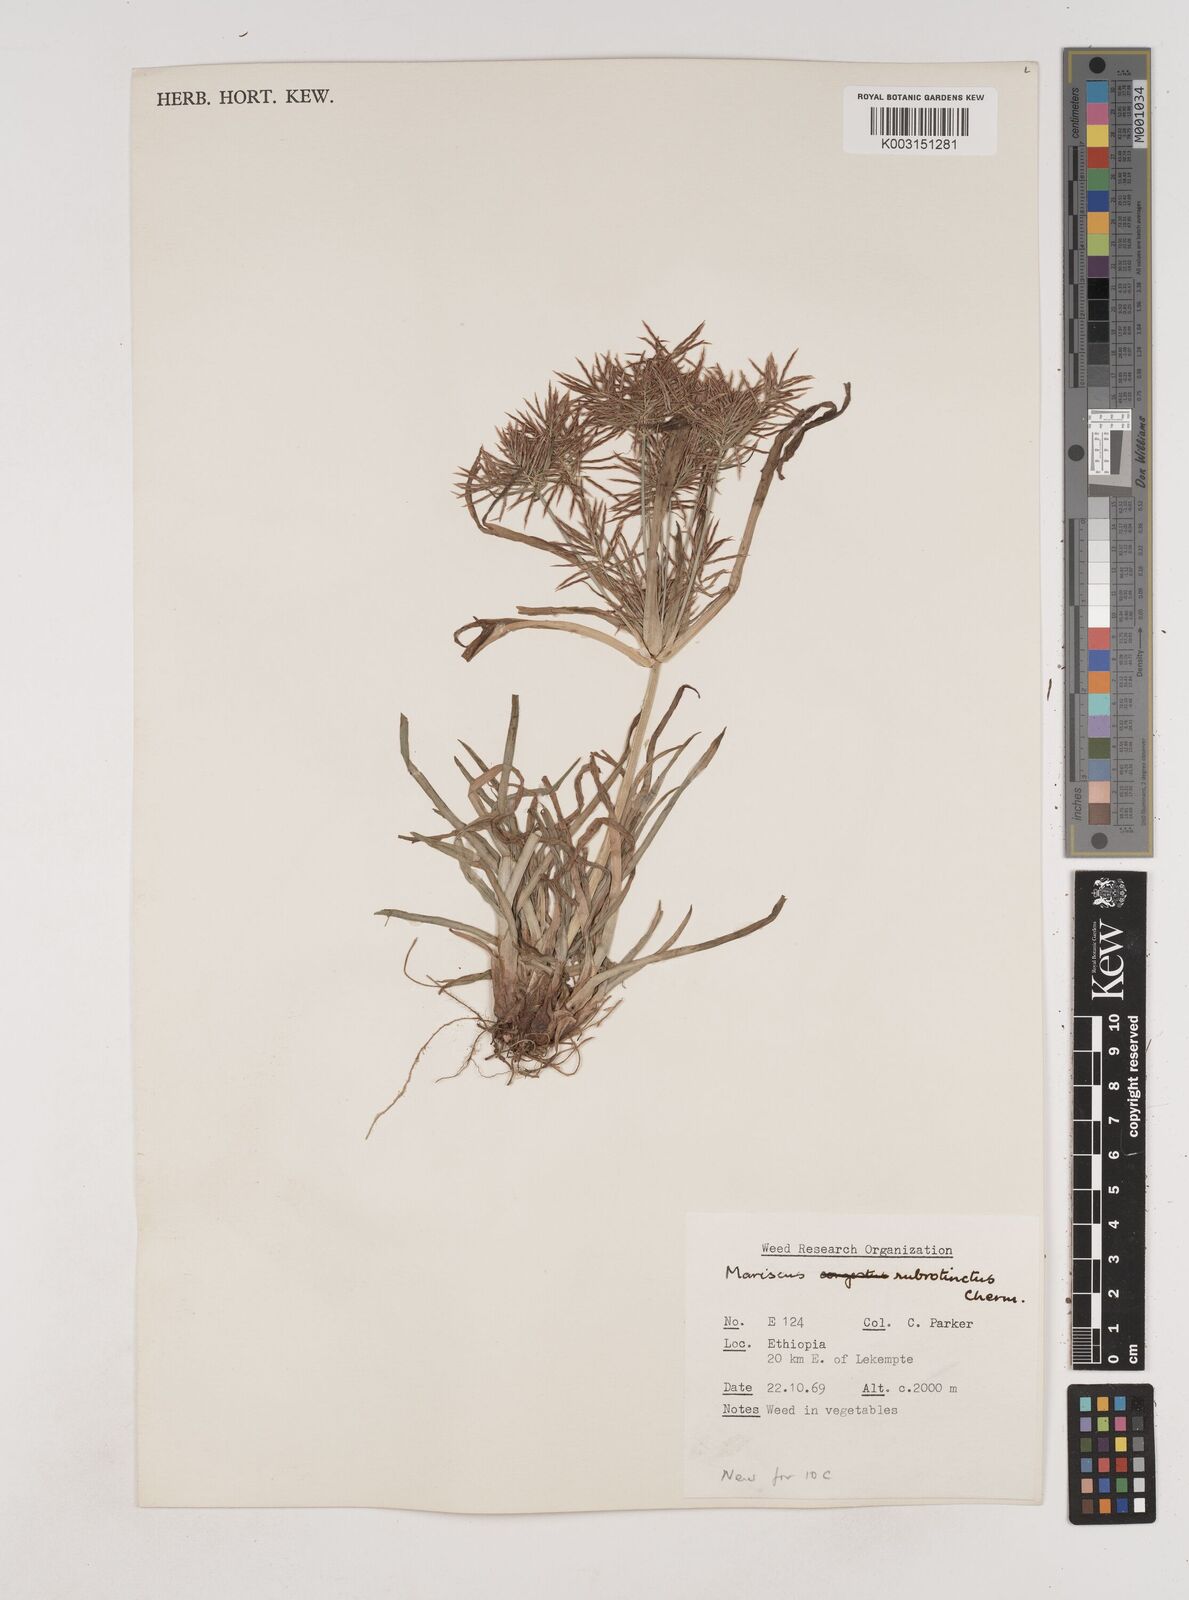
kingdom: Plantae
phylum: Tracheophyta
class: Liliopsida
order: Poales
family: Cyperaceae
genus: Cyperus
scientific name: Cyperus distans
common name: Slender cyperus
